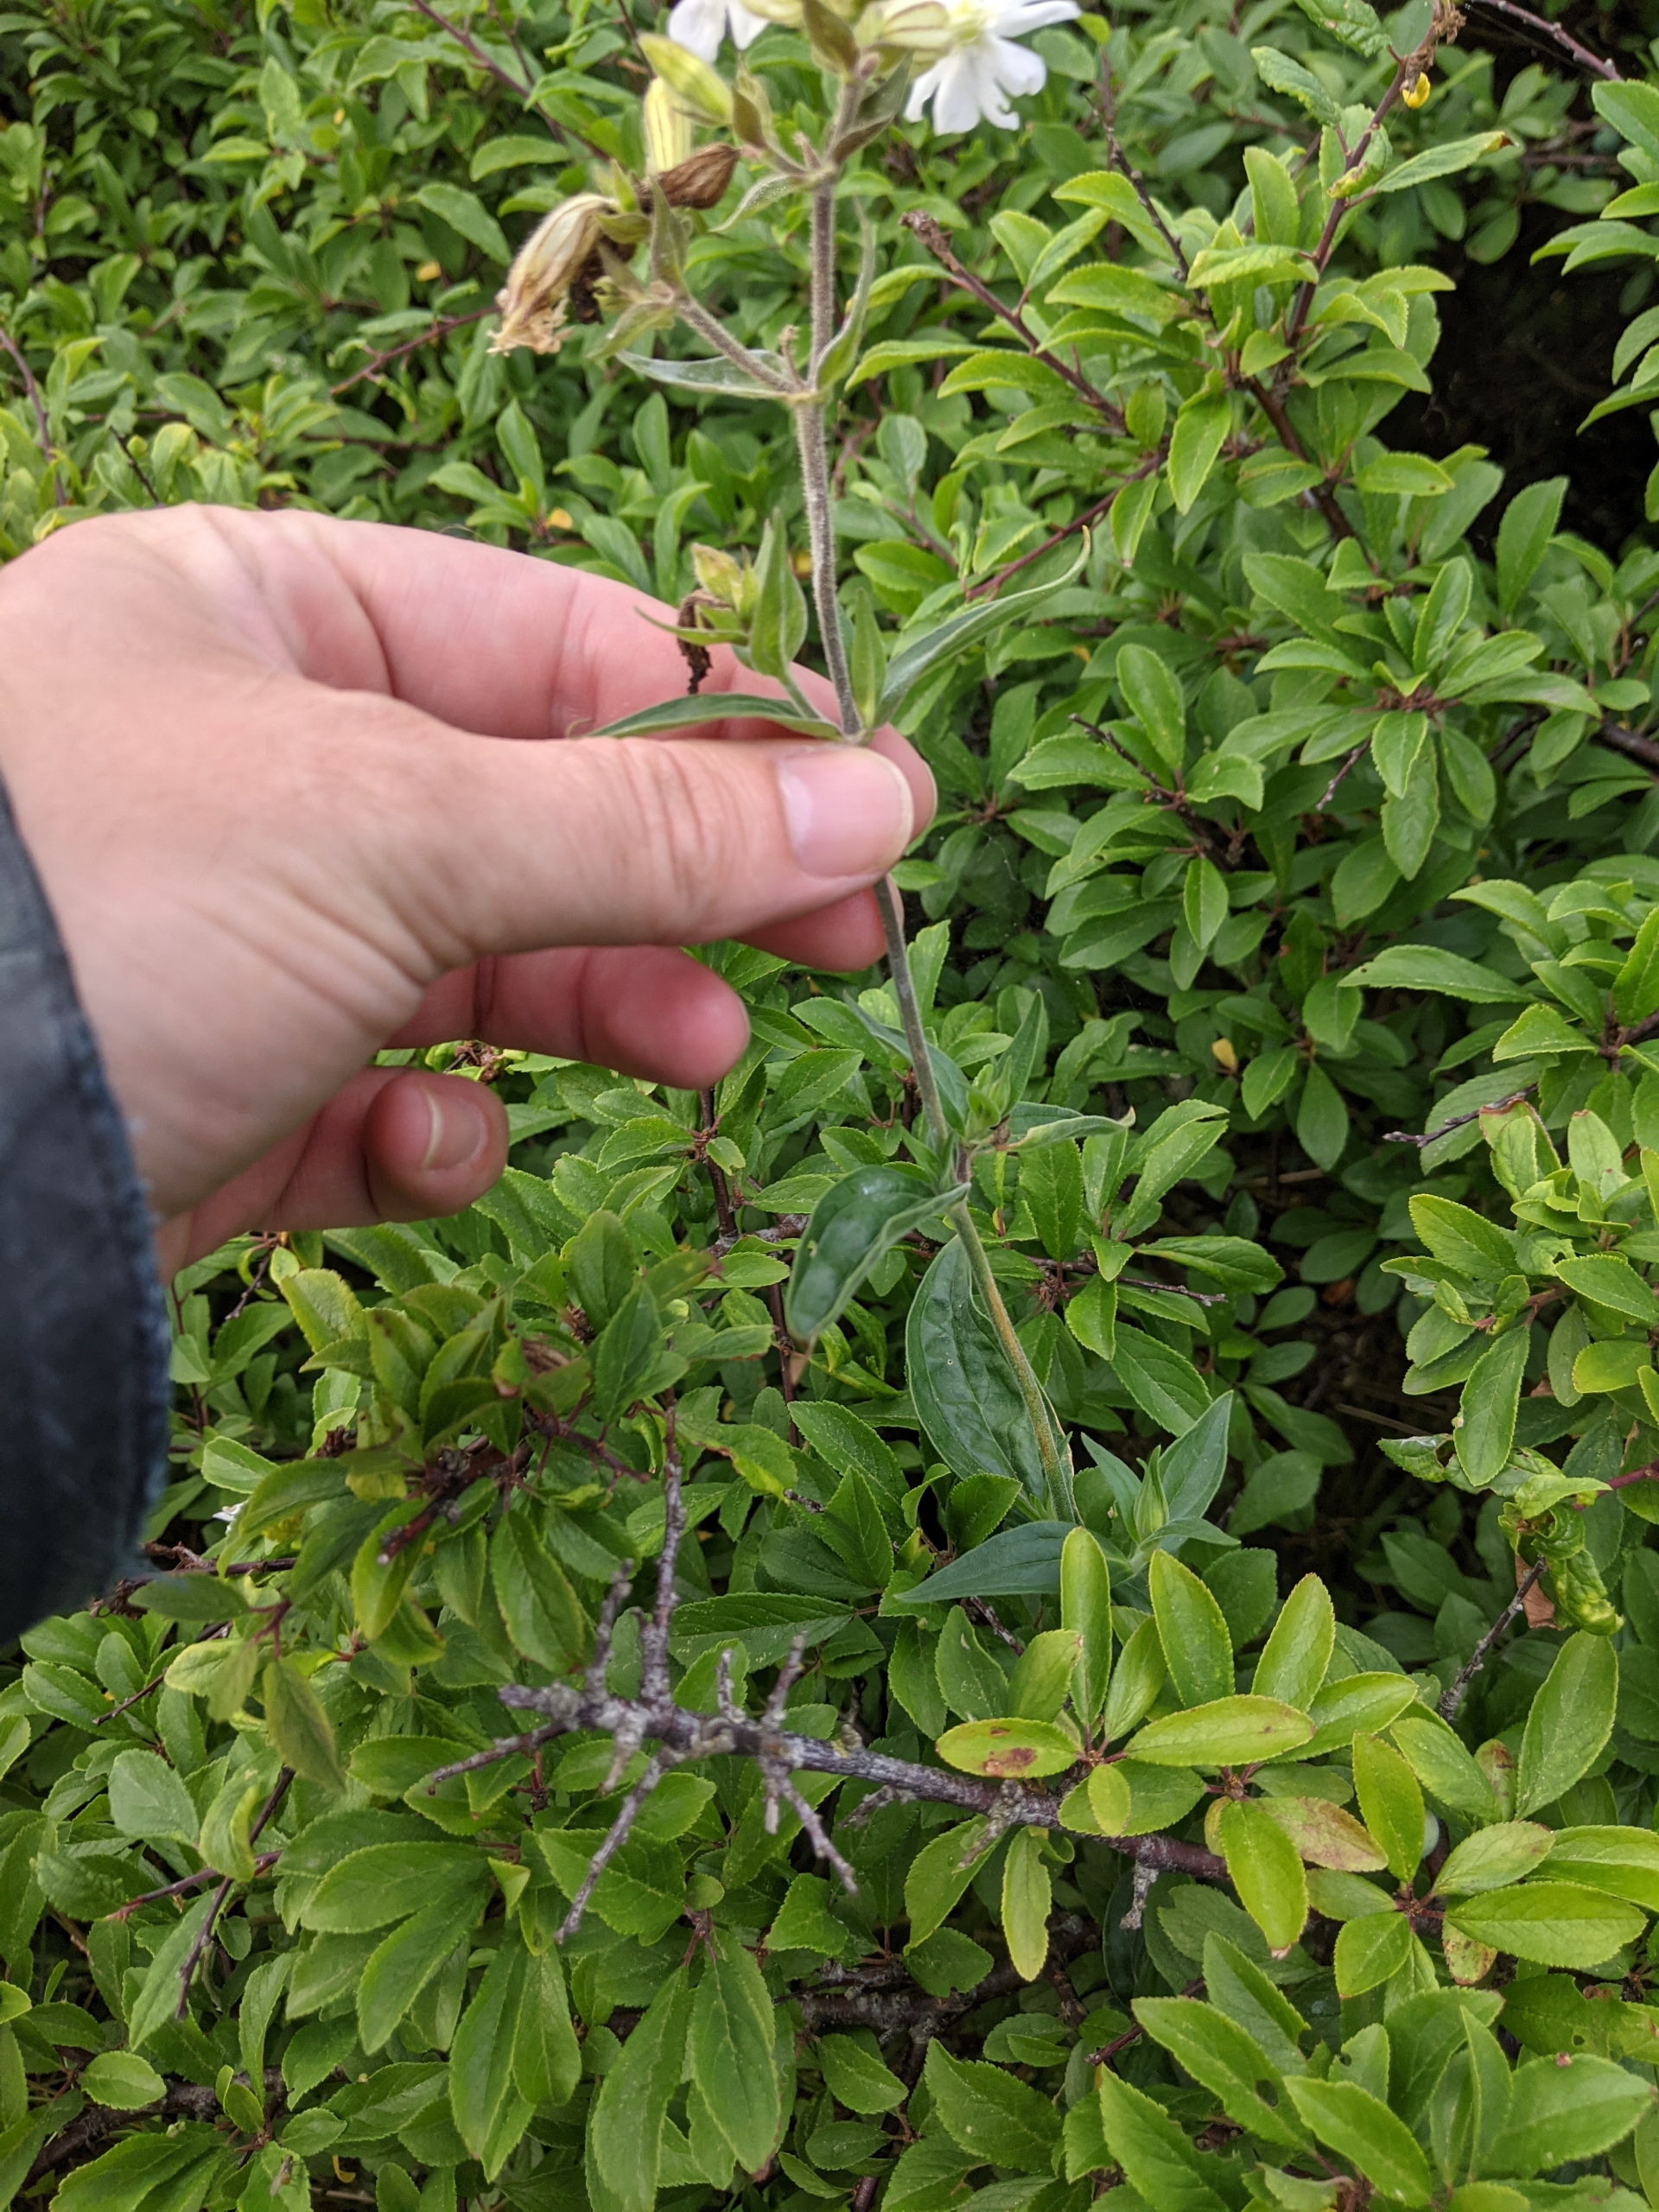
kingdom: Plantae
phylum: Tracheophyta
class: Magnoliopsida
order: Caryophyllales
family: Caryophyllaceae
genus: Silene
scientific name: Silene latifolia
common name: Aftenpragtstjerne
